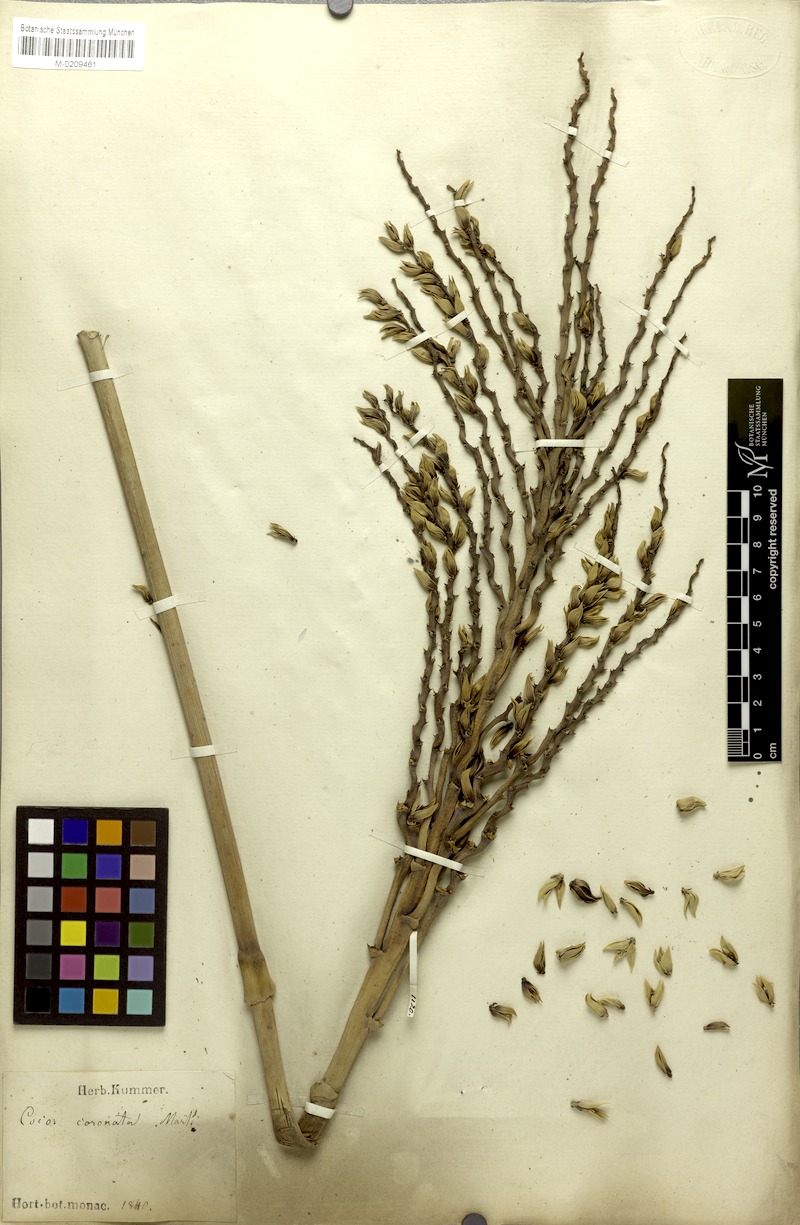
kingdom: Plantae
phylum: Tracheophyta
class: Liliopsida
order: Arecales
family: Arecaceae
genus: Syagrus
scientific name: Syagrus oleracea
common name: Catole palm
